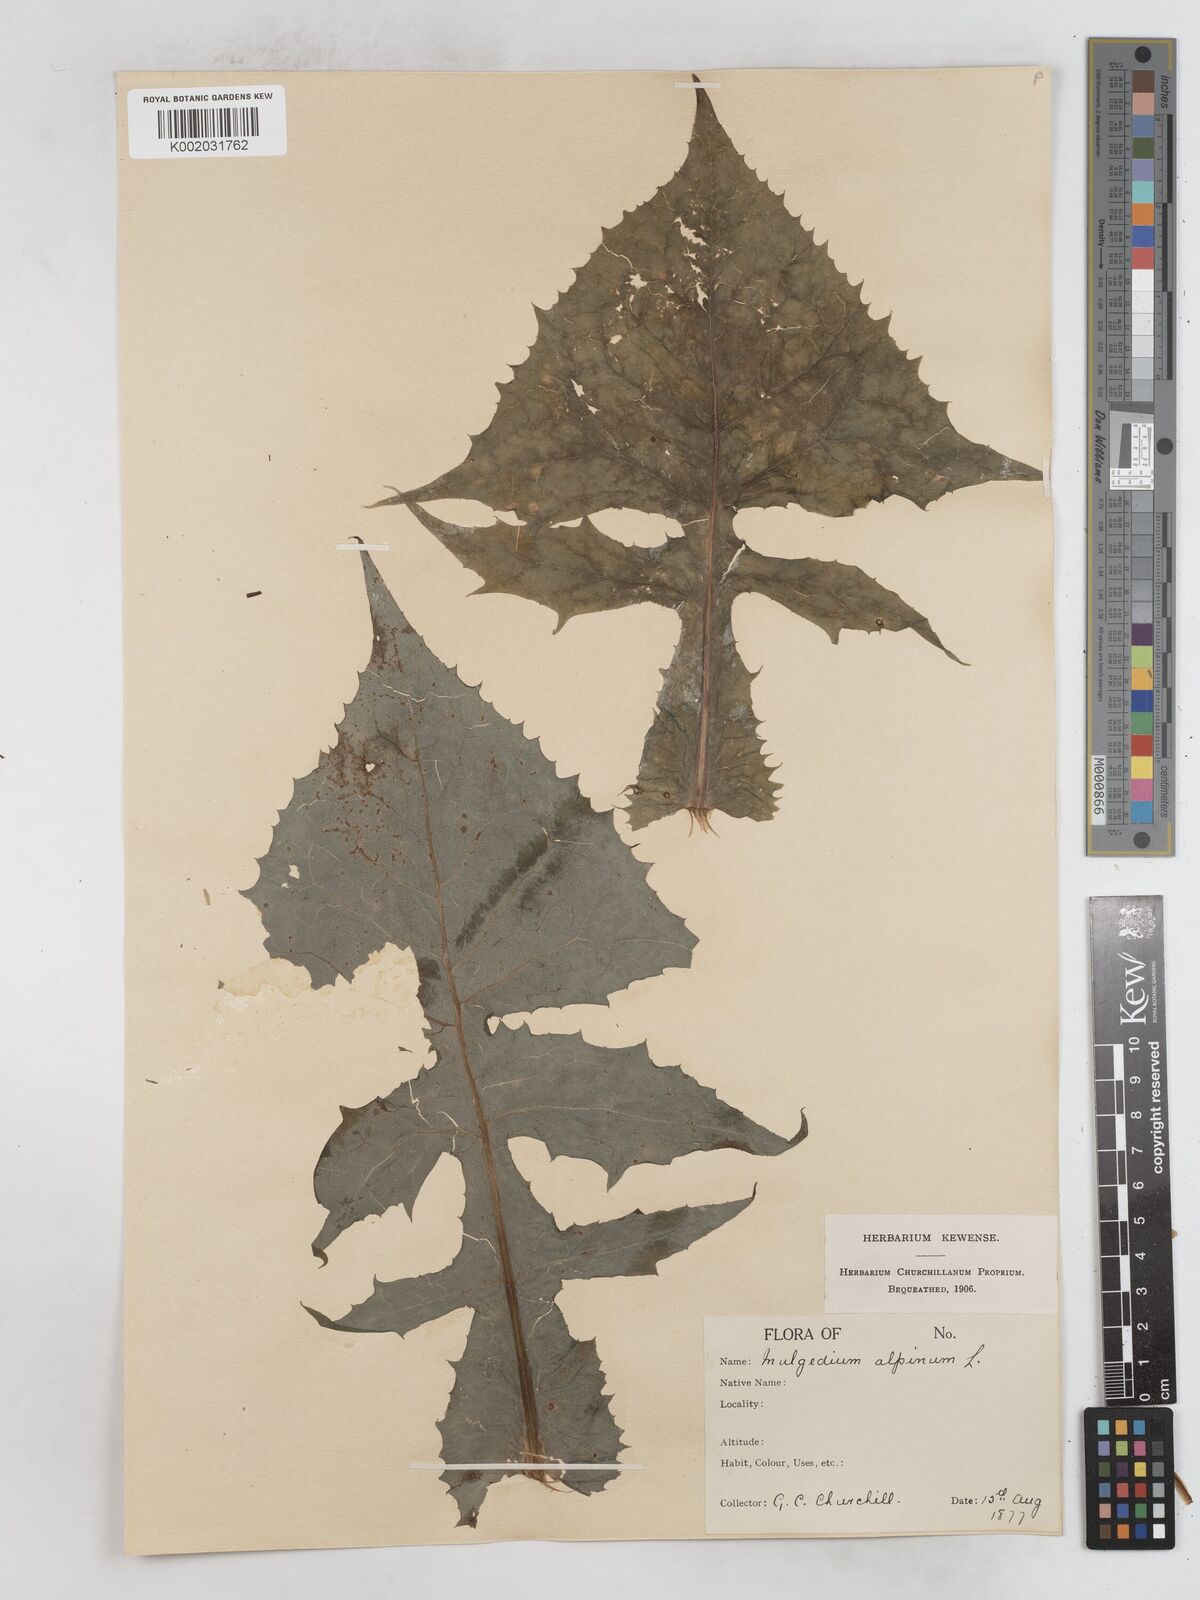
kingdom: Plantae
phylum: Tracheophyta
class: Magnoliopsida
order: Asterales
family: Asteraceae
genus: Cicerbita
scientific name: Cicerbita alpina
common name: Alpine blue-sow-thistle
